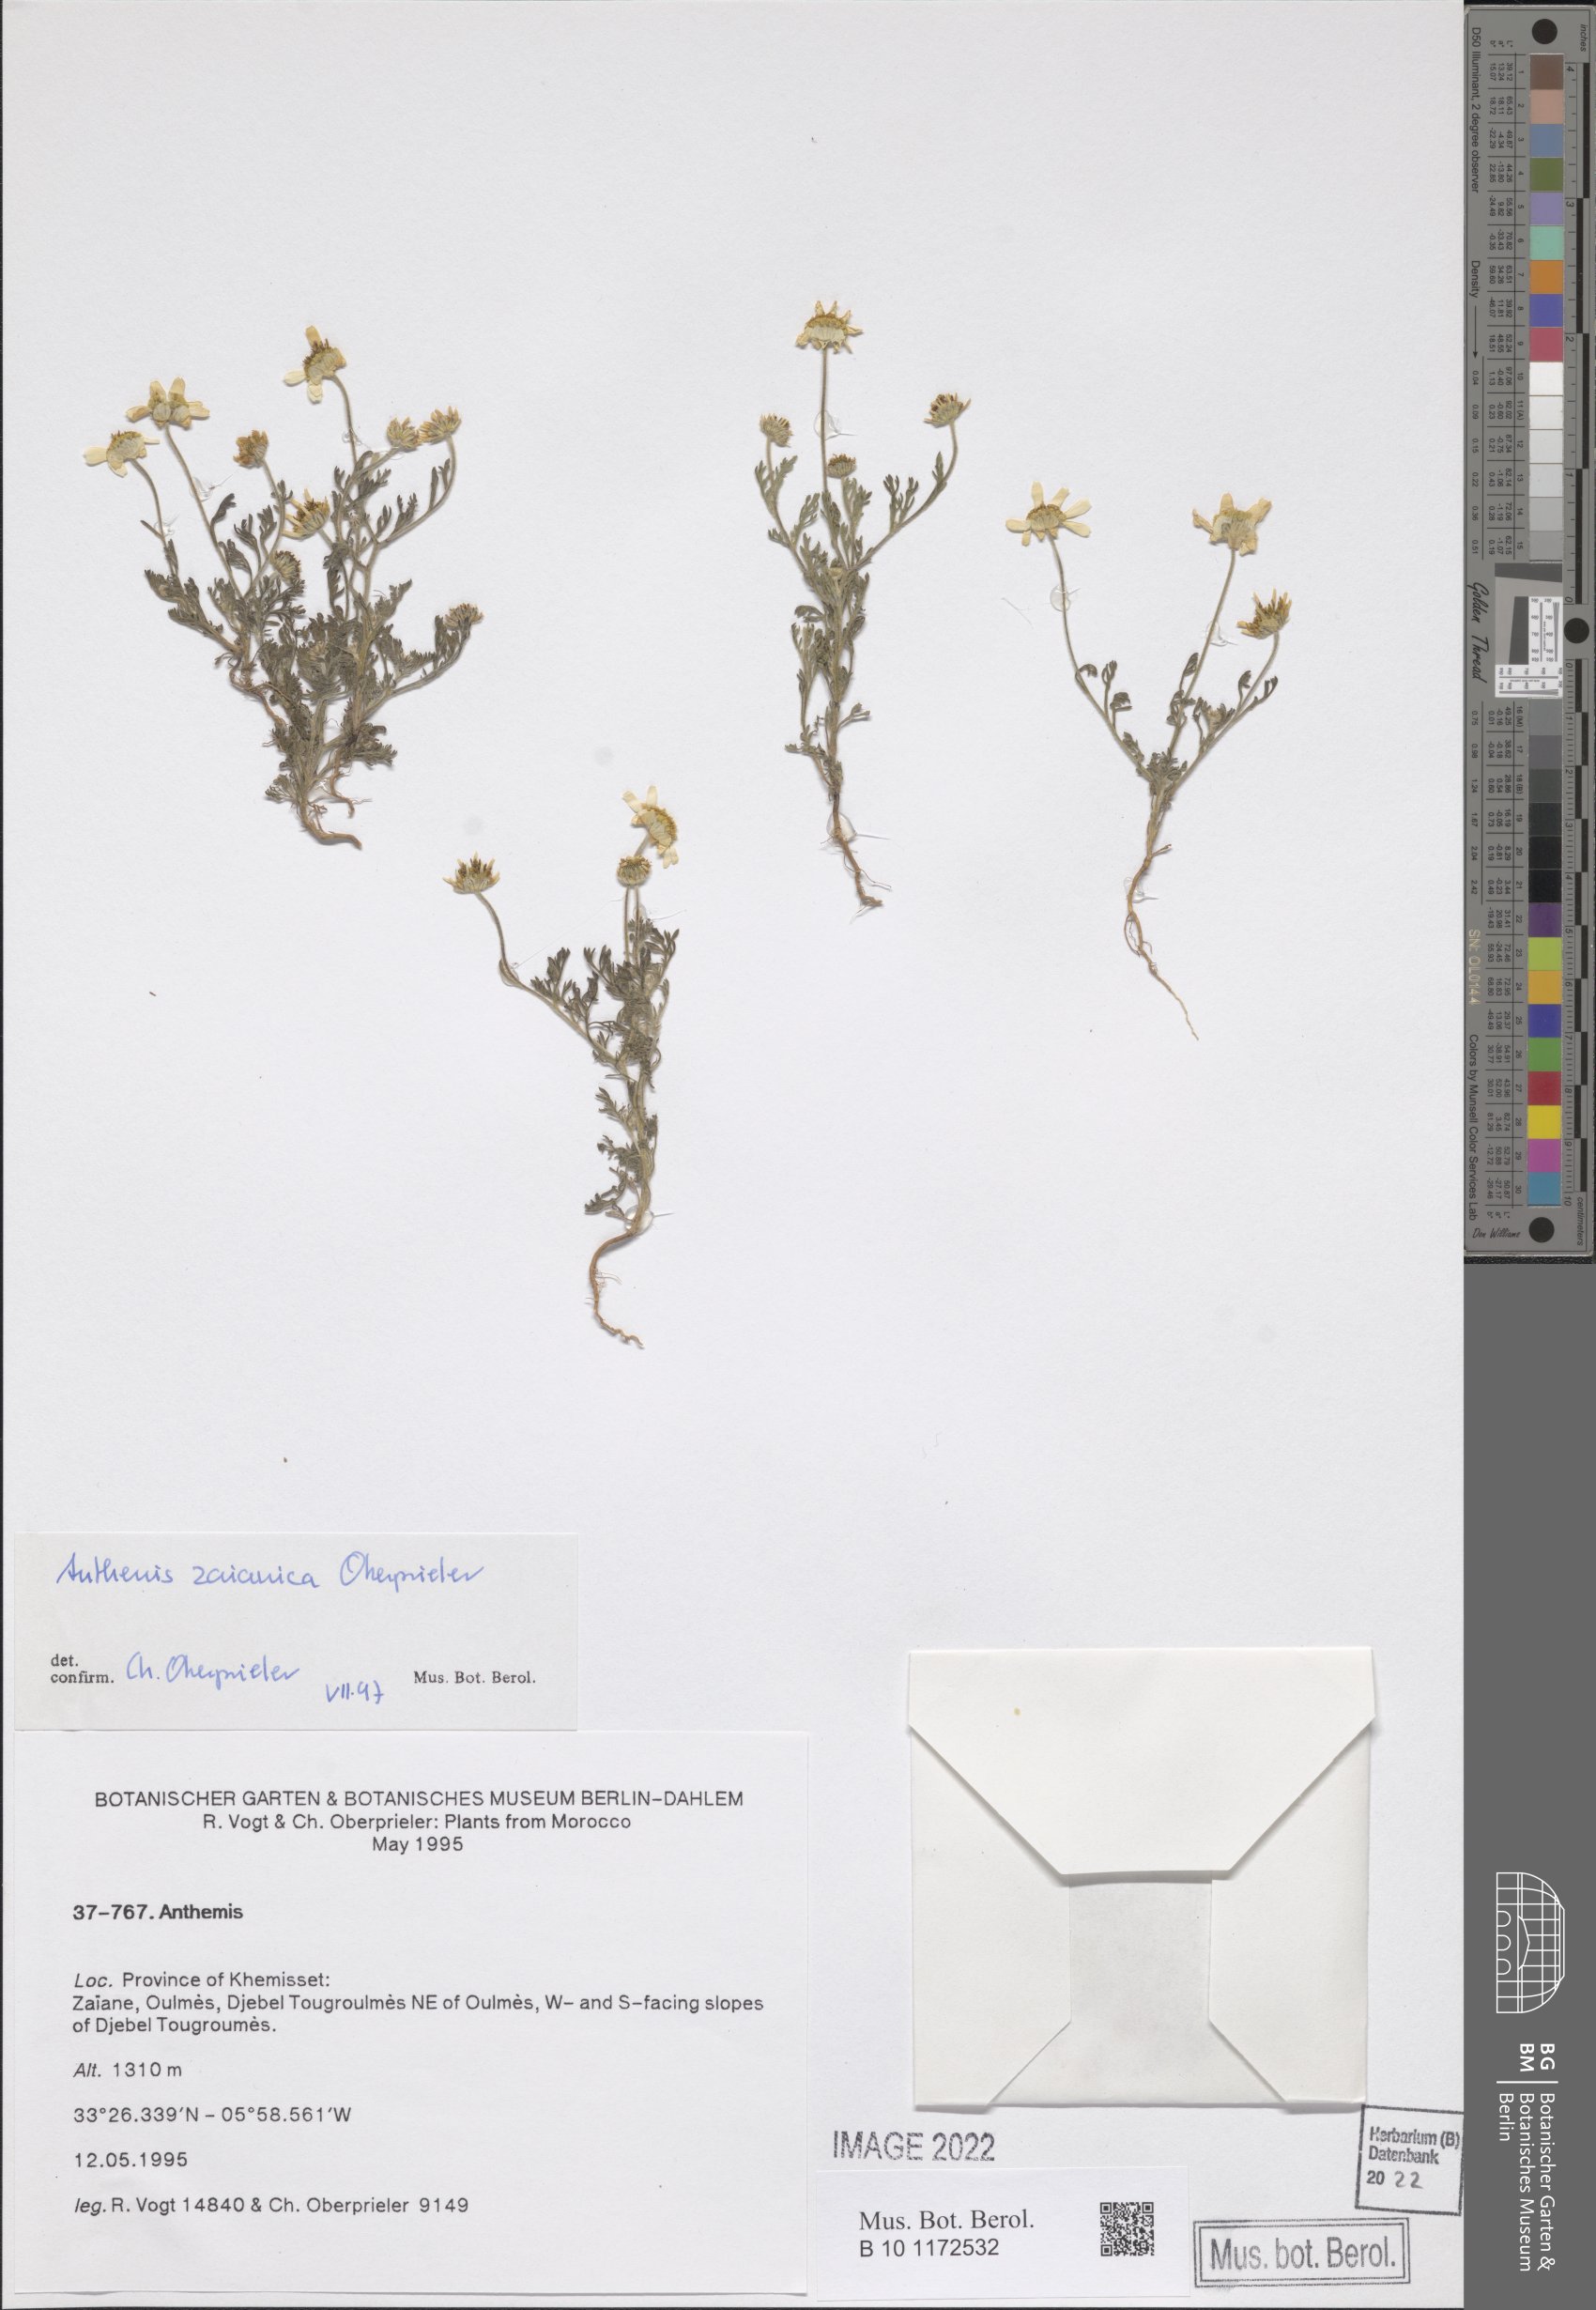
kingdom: Plantae
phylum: Tracheophyta
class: Magnoliopsida
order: Asterales
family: Asteraceae
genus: Anthemis
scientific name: Anthemis zaianica
